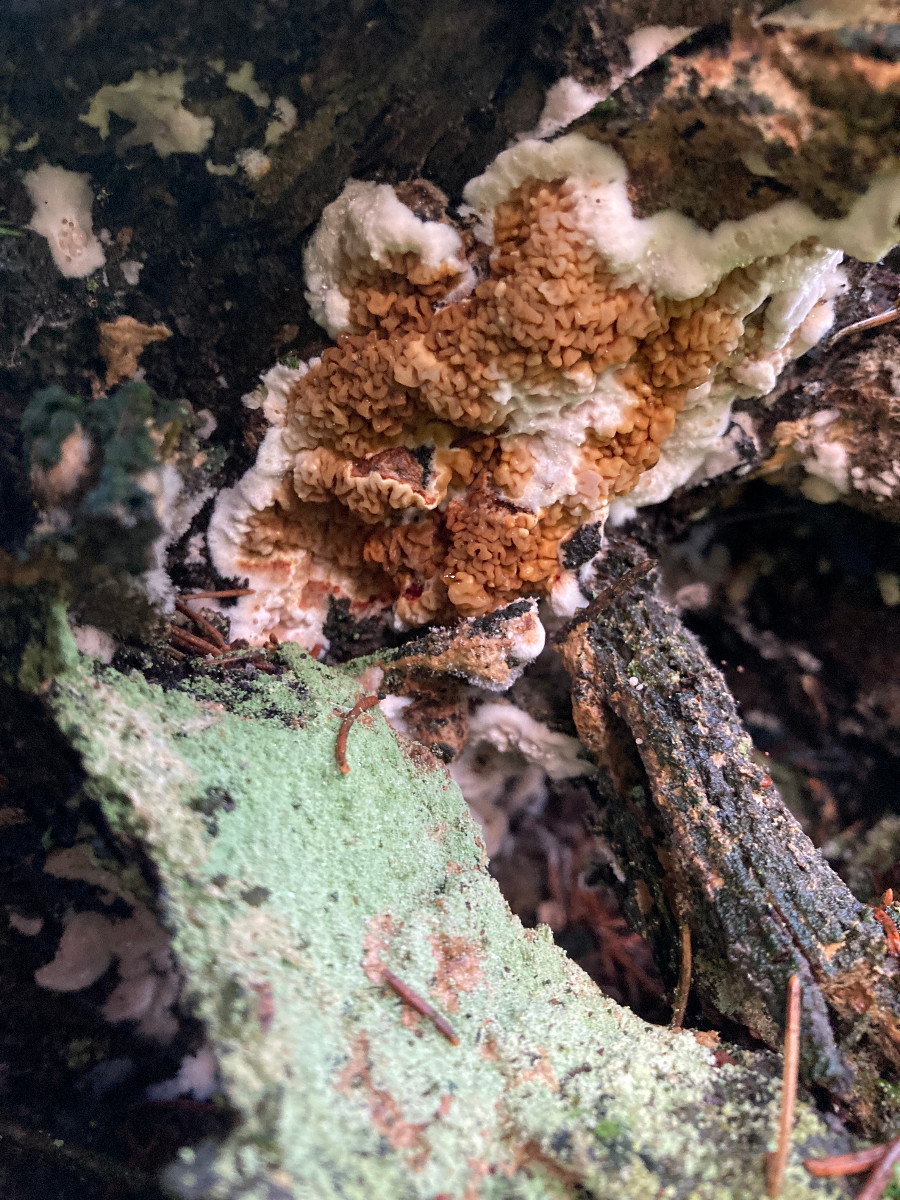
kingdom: Fungi
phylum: Basidiomycota
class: Agaricomycetes
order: Boletales
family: Serpulaceae
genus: Serpula
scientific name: Serpula himantioides
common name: tyndkødet hussvamp
